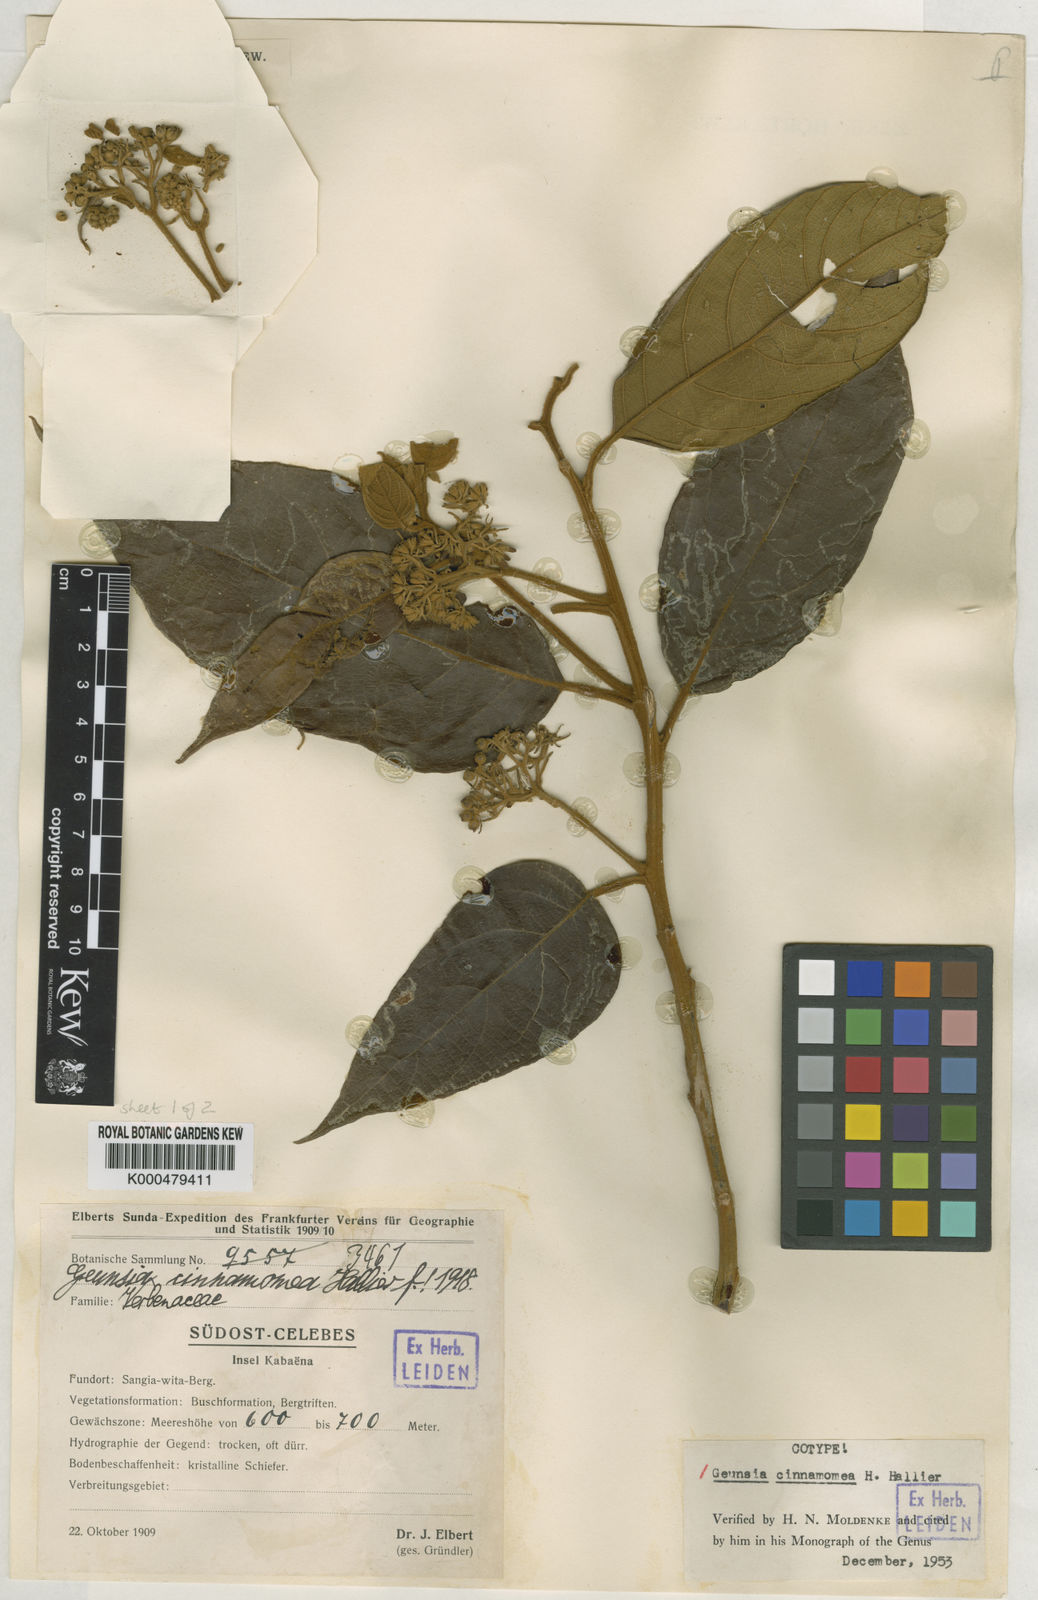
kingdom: Plantae
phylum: Tracheophyta
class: Magnoliopsida
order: Lamiales
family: Lamiaceae
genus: Callicarpa
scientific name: Callicarpa cinnamomea
